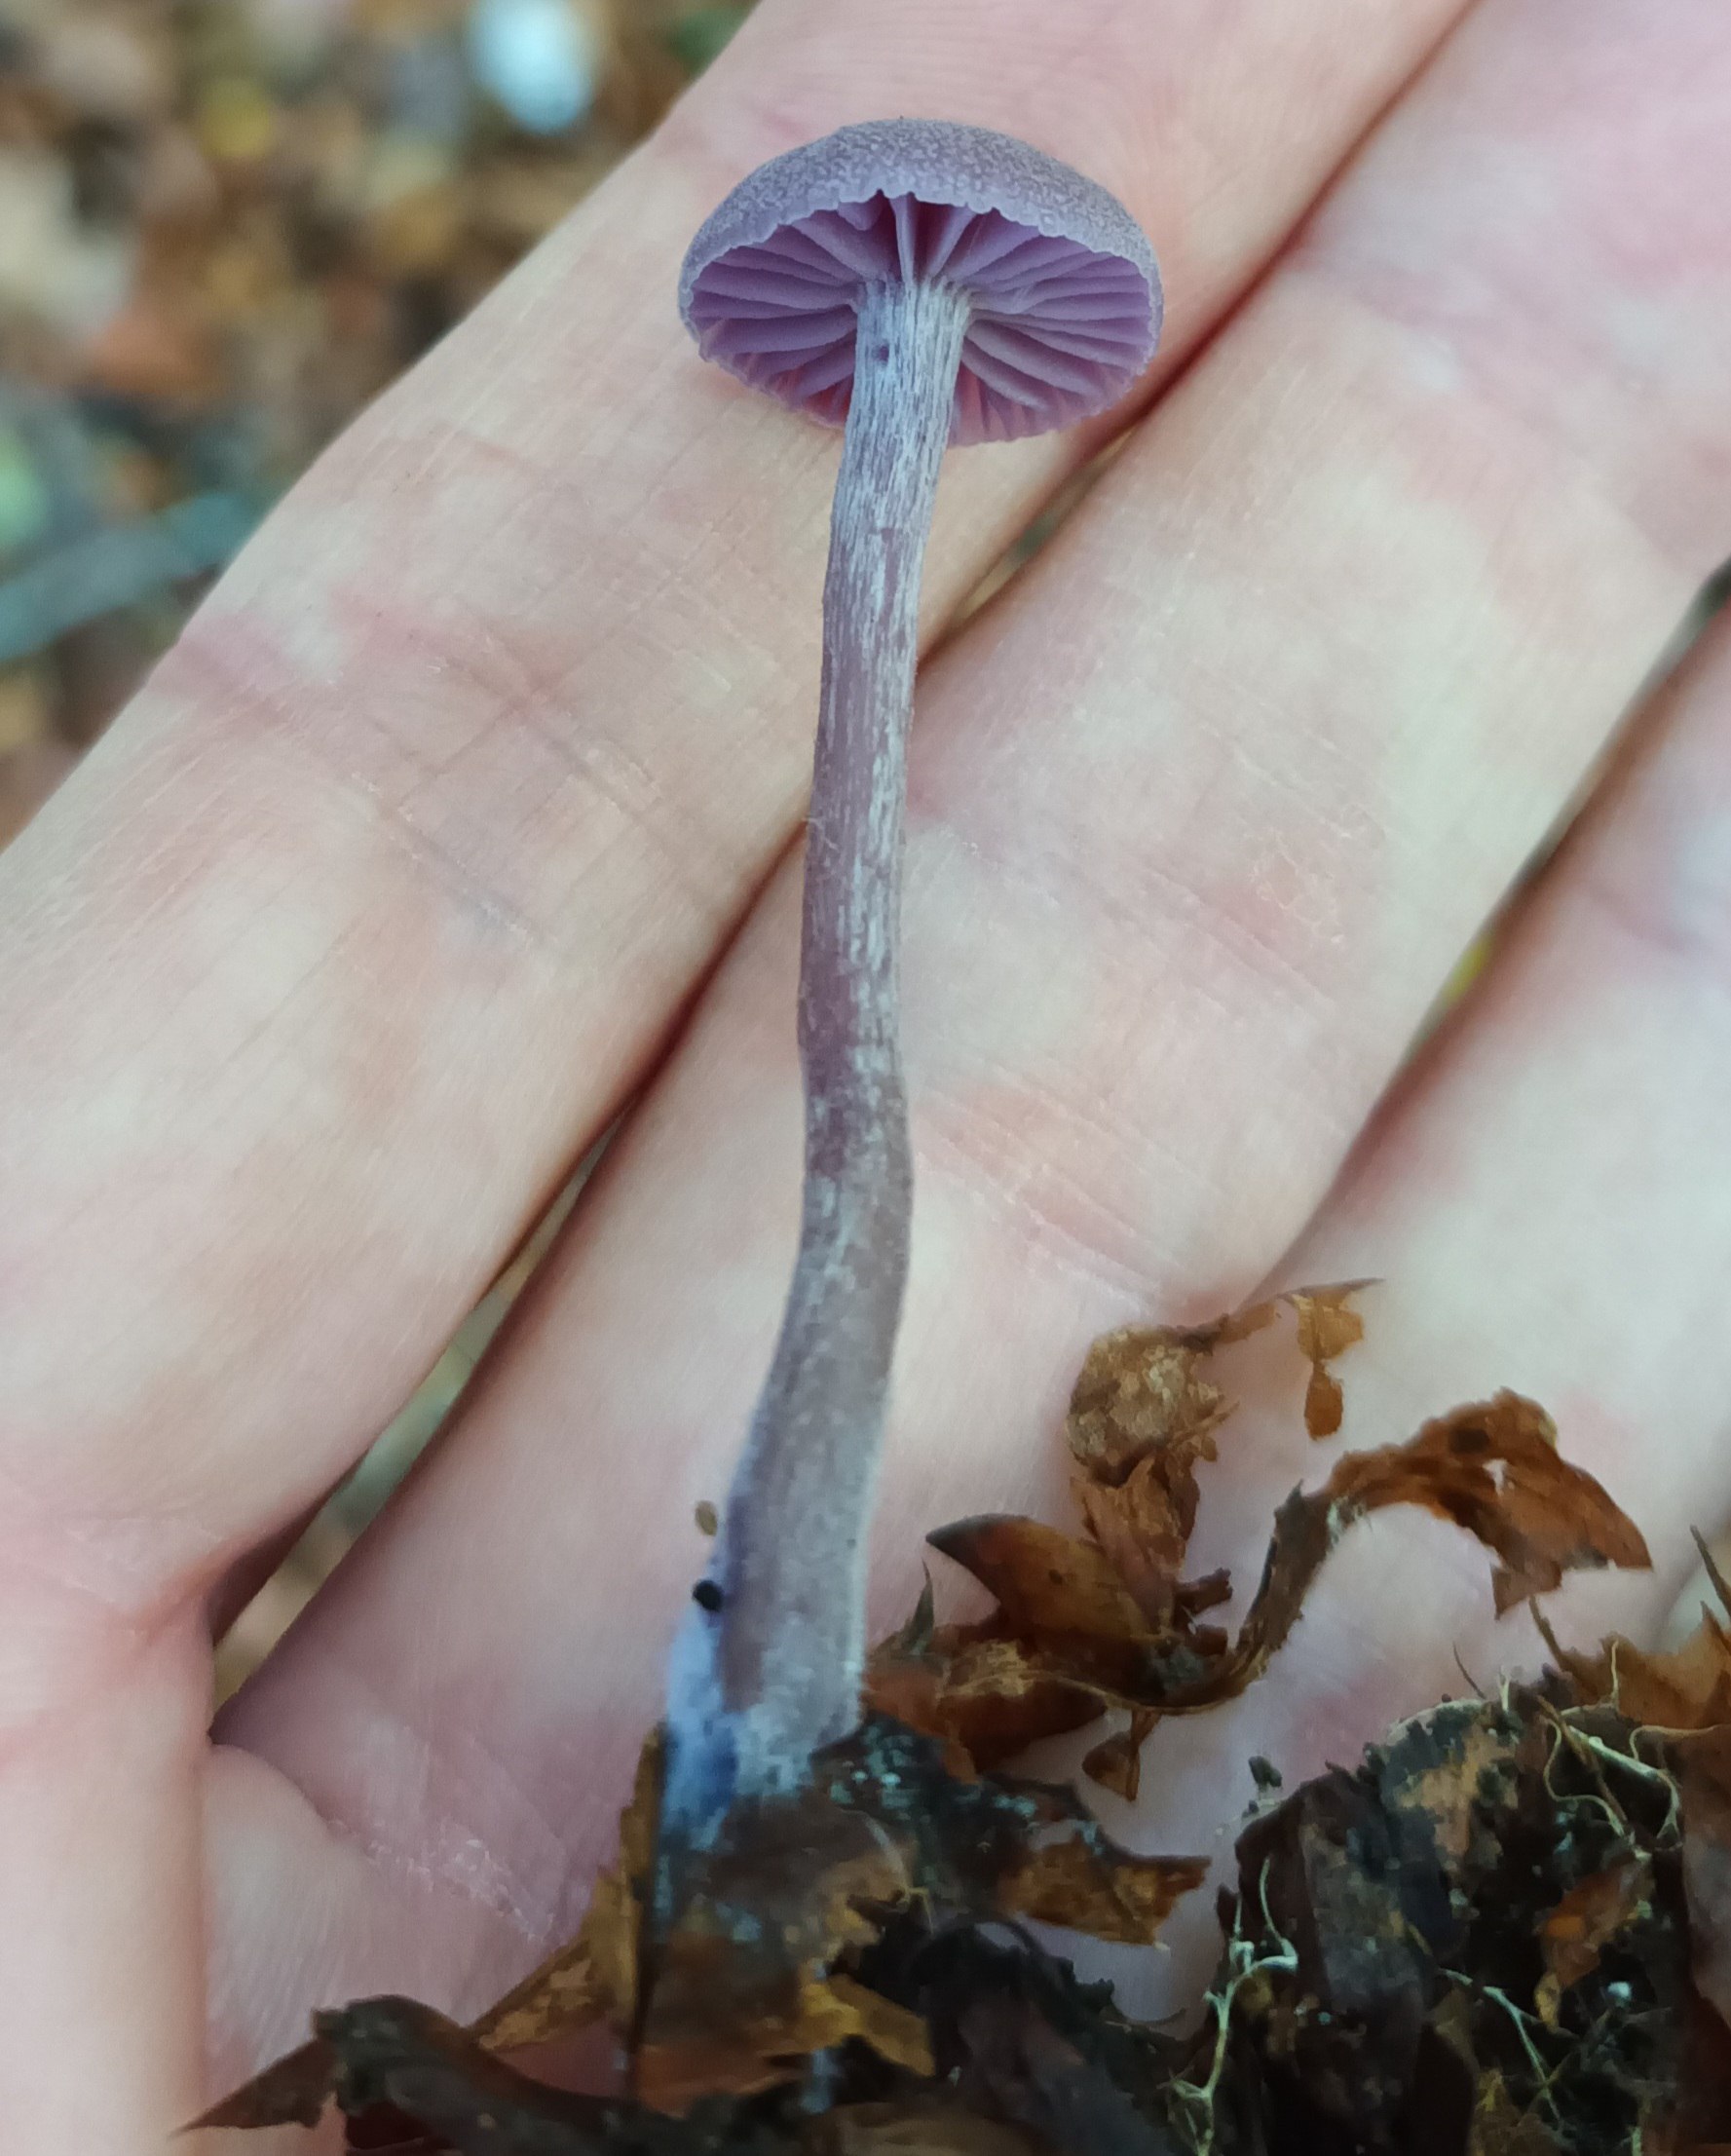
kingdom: Fungi
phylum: Basidiomycota
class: Agaricomycetes
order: Agaricales
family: Hydnangiaceae
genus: Laccaria
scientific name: Laccaria amethystina
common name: Violet ametysthat
